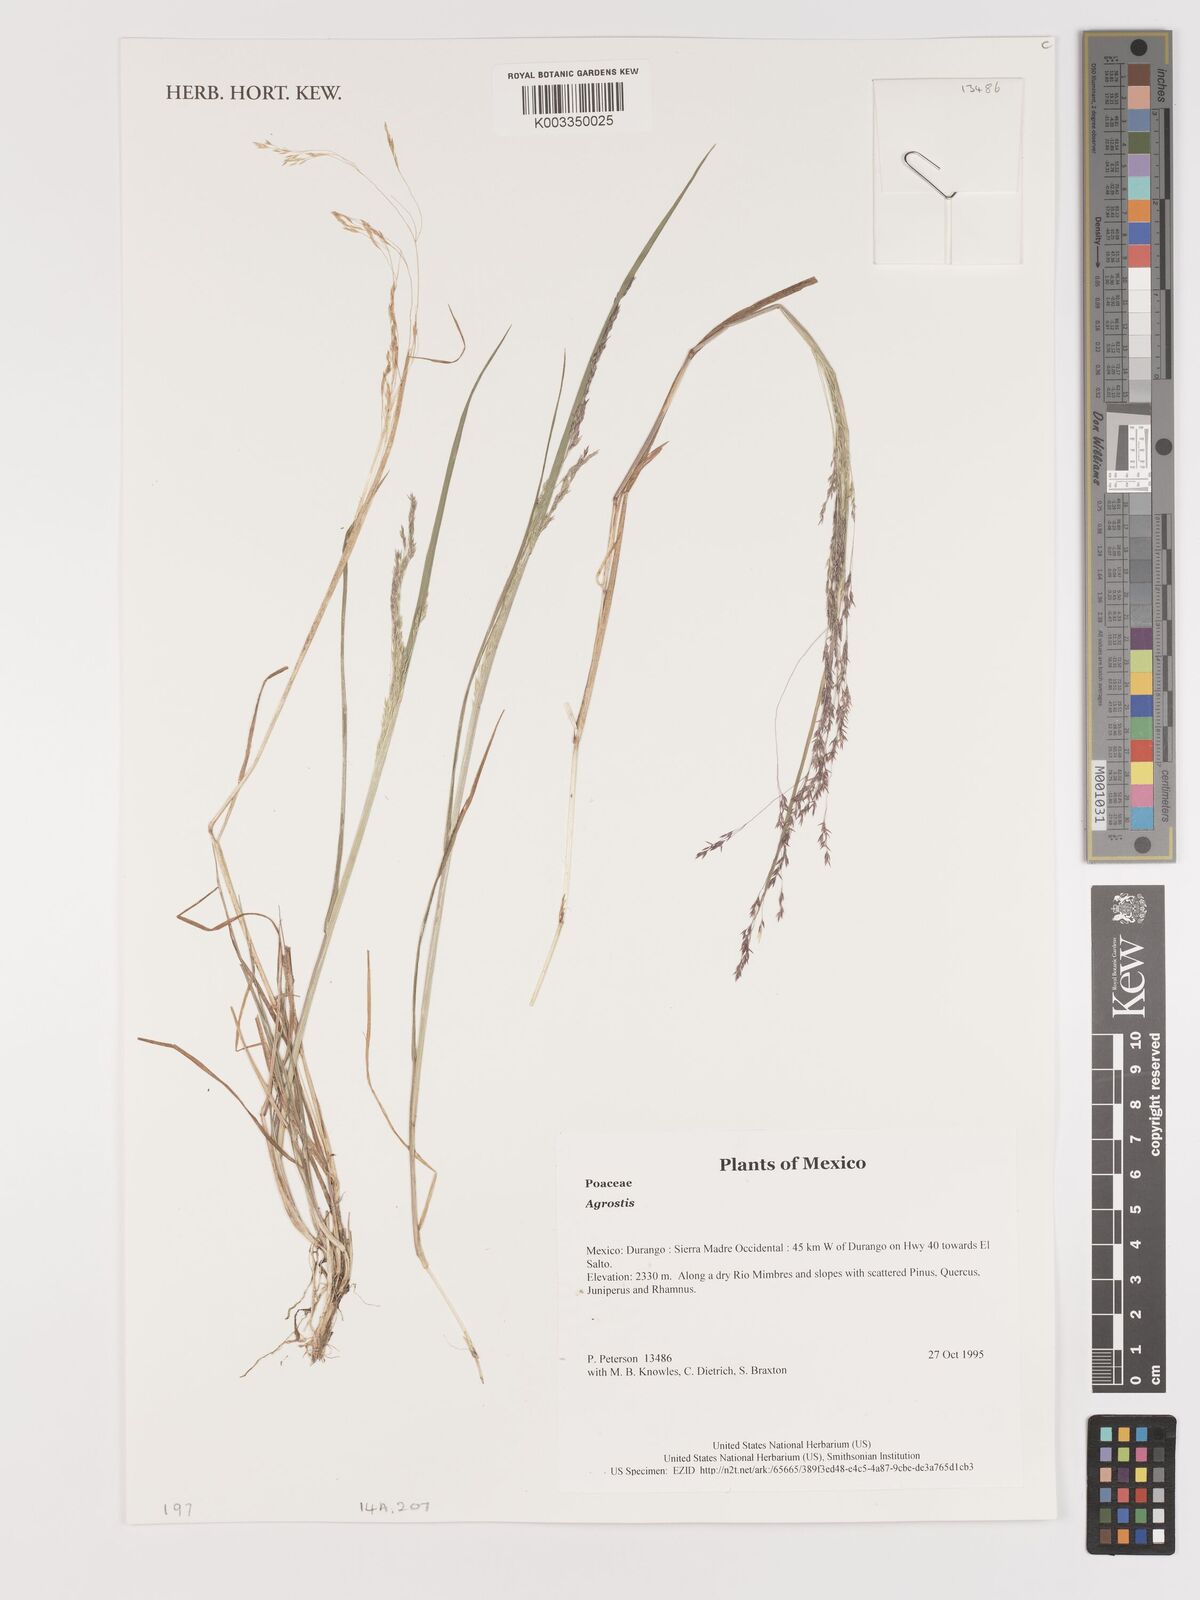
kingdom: Plantae
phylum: Tracheophyta
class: Liliopsida
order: Poales
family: Poaceae
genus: Agrostis
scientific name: Agrostis
